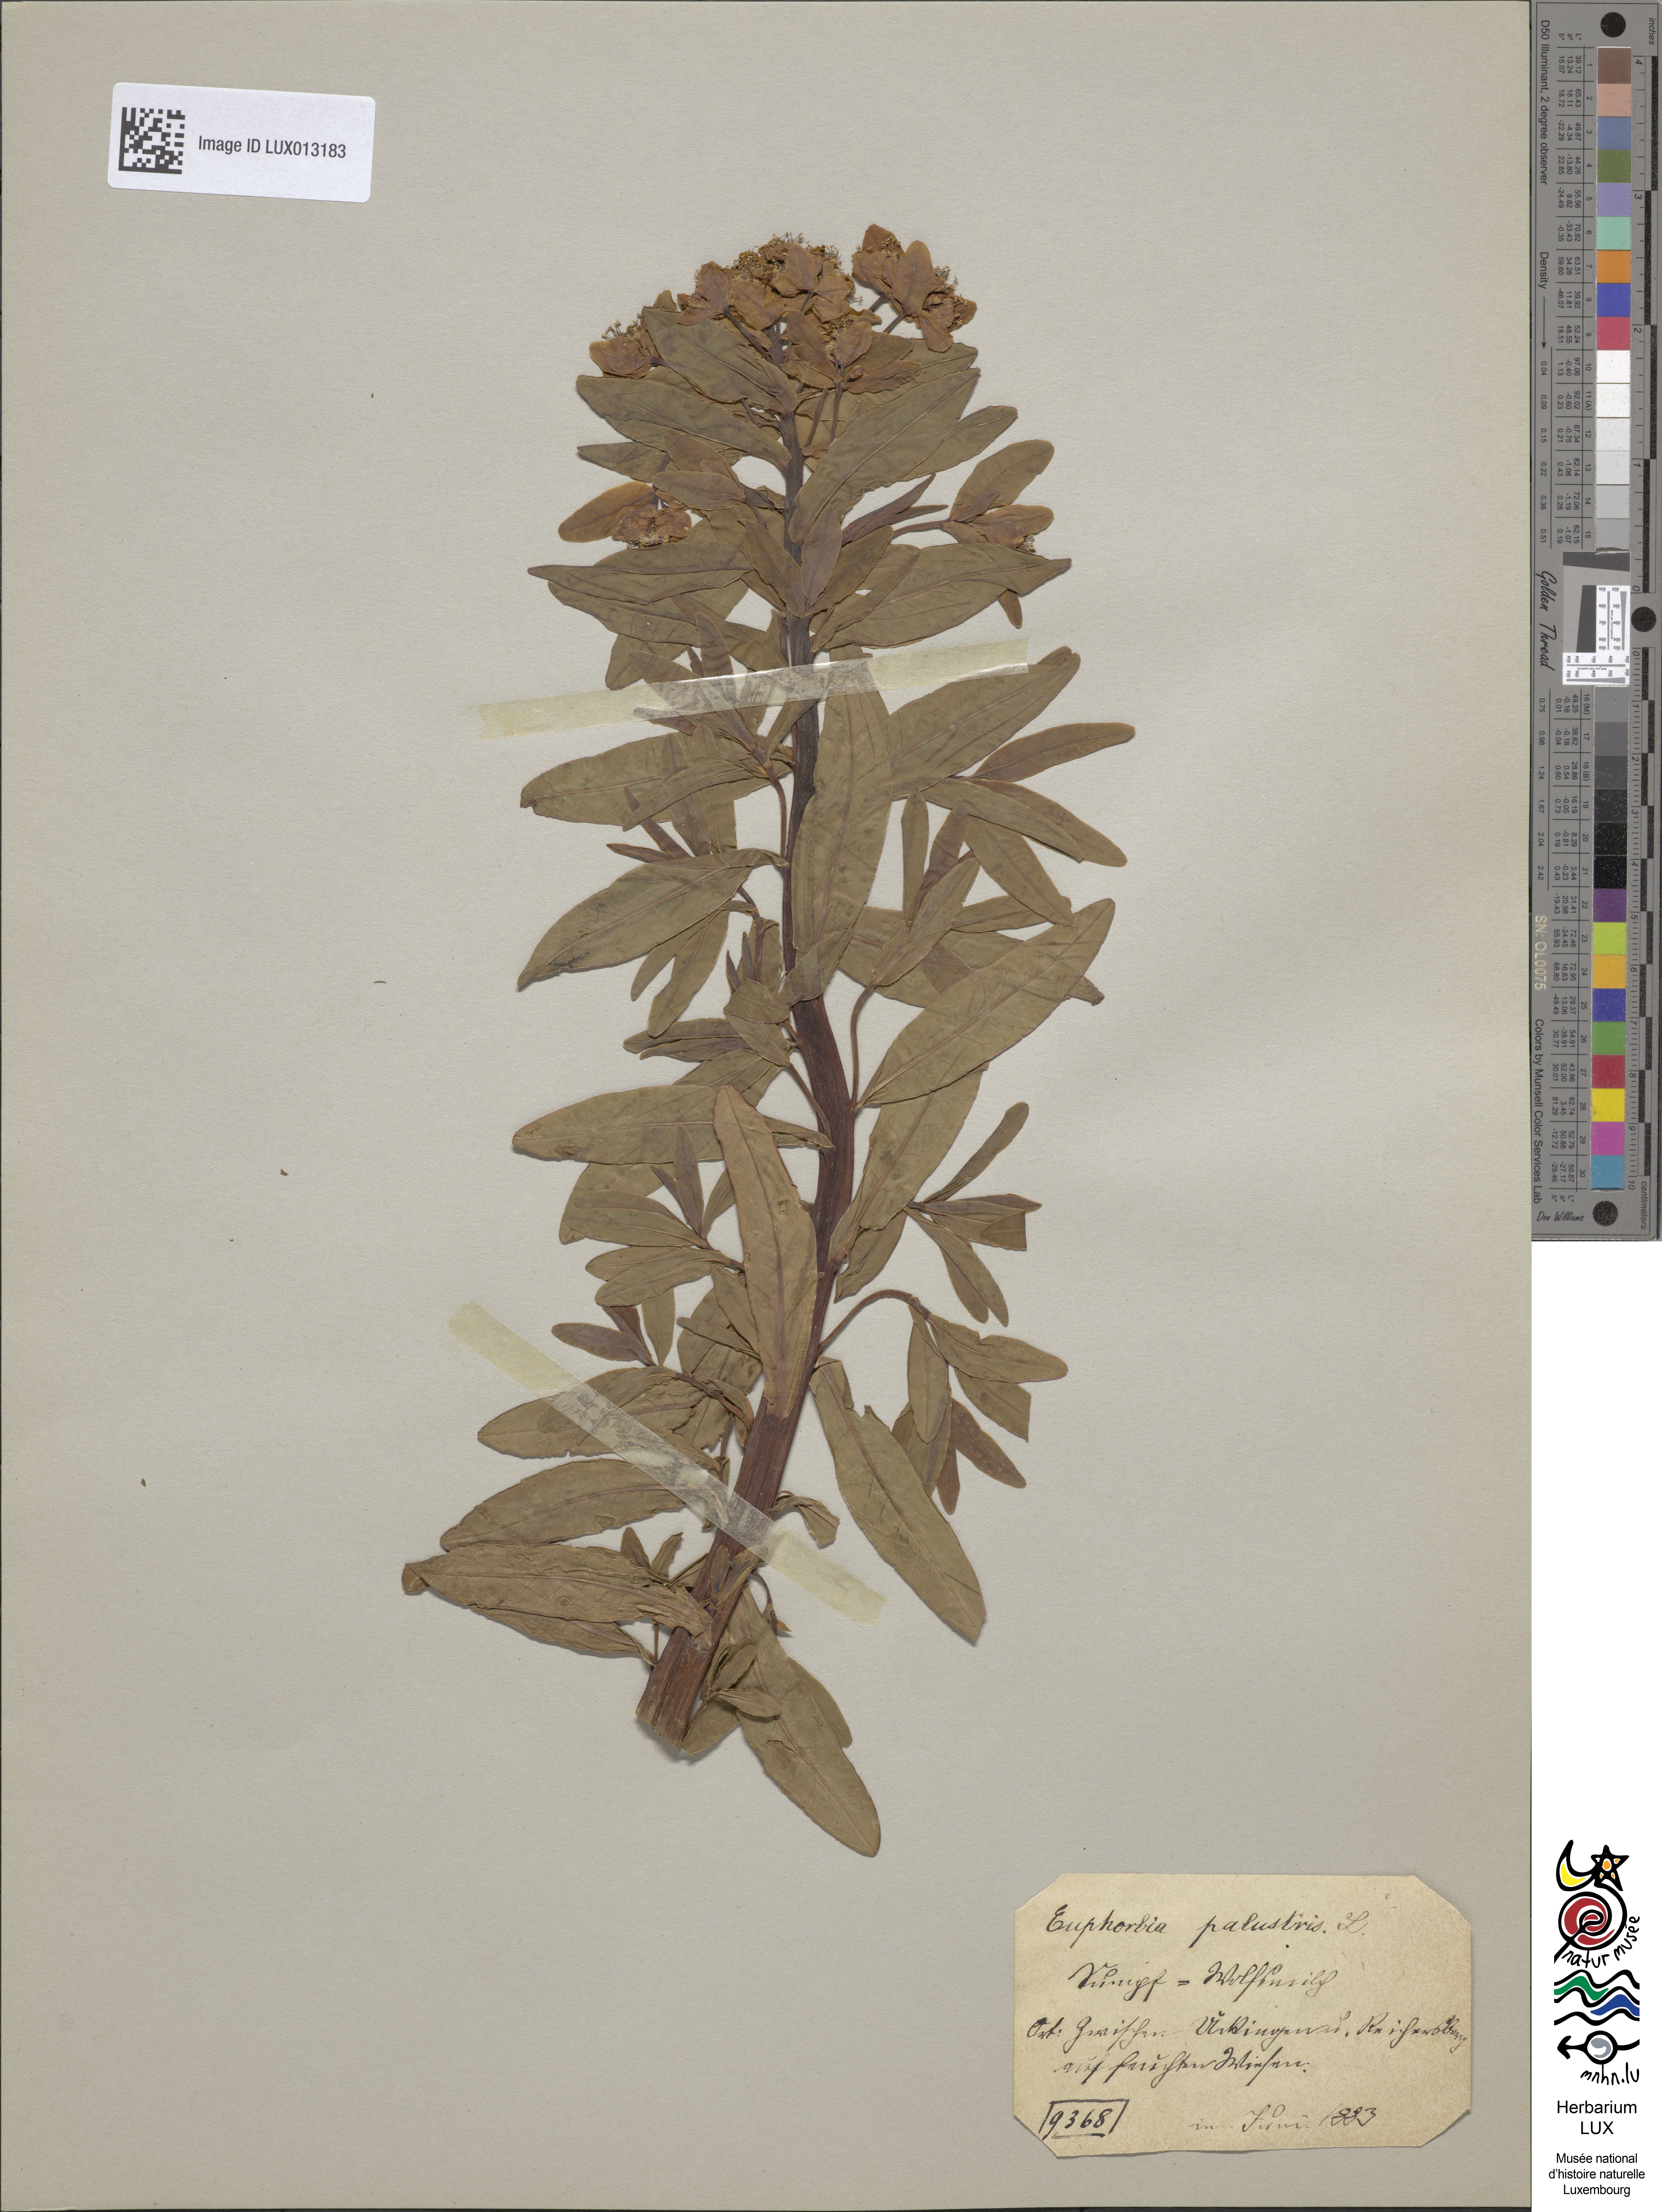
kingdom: Plantae
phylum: Tracheophyta
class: Magnoliopsida
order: Malpighiales
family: Euphorbiaceae
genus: Euphorbia
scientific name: Euphorbia palustris
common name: Marsh spurge
